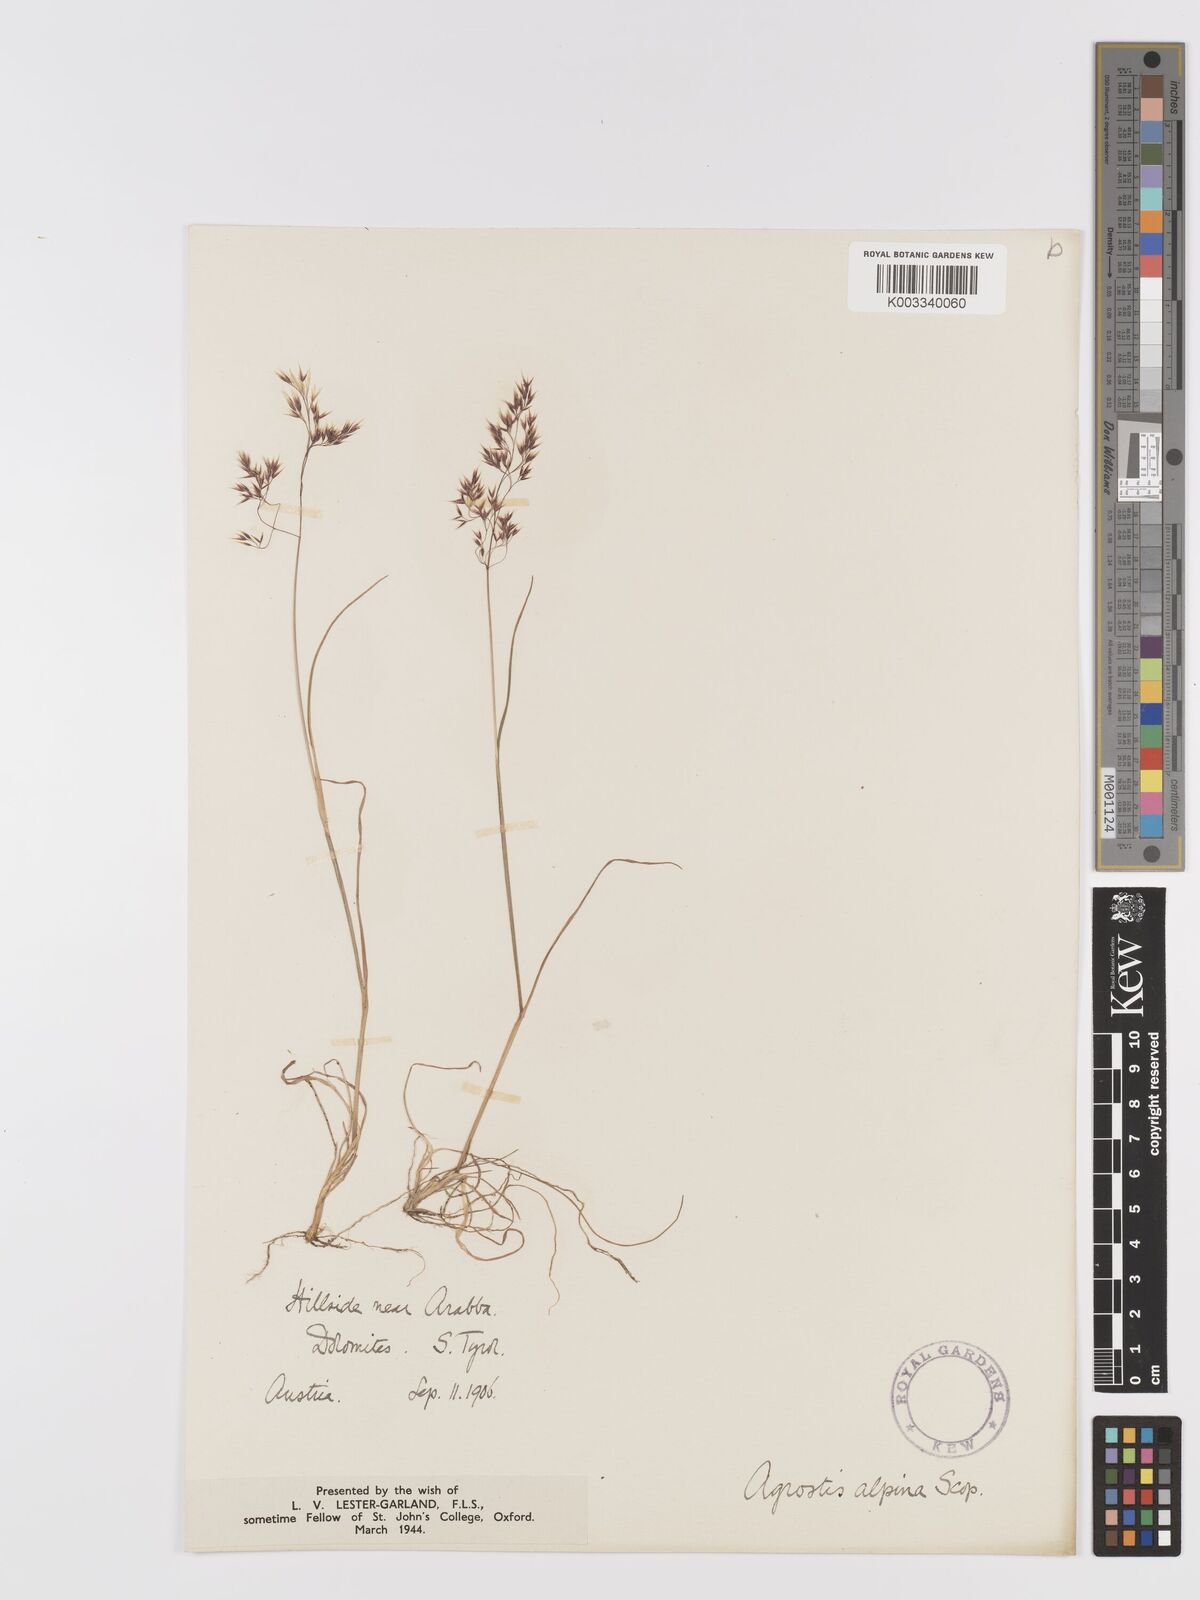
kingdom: Plantae
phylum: Tracheophyta
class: Liliopsida
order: Poales
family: Poaceae
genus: Agrostis
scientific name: Agrostis rupestris
